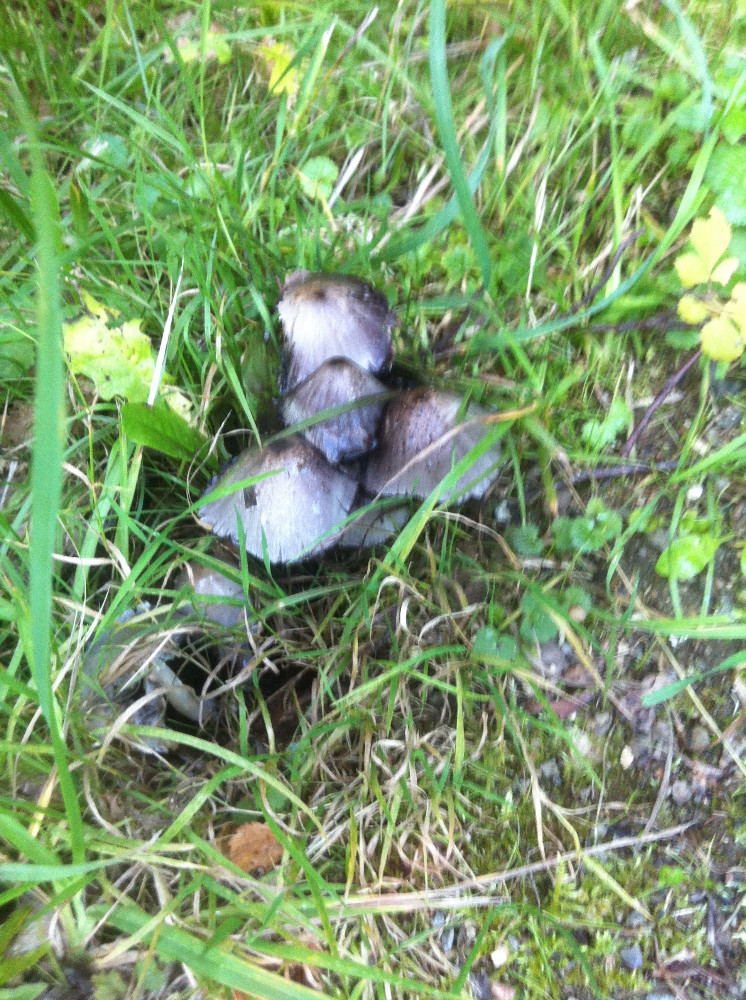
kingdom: Fungi
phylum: Basidiomycota
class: Agaricomycetes
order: Agaricales
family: Psathyrellaceae
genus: Coprinopsis
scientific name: Coprinopsis atramentaria
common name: almindelig blækhat
